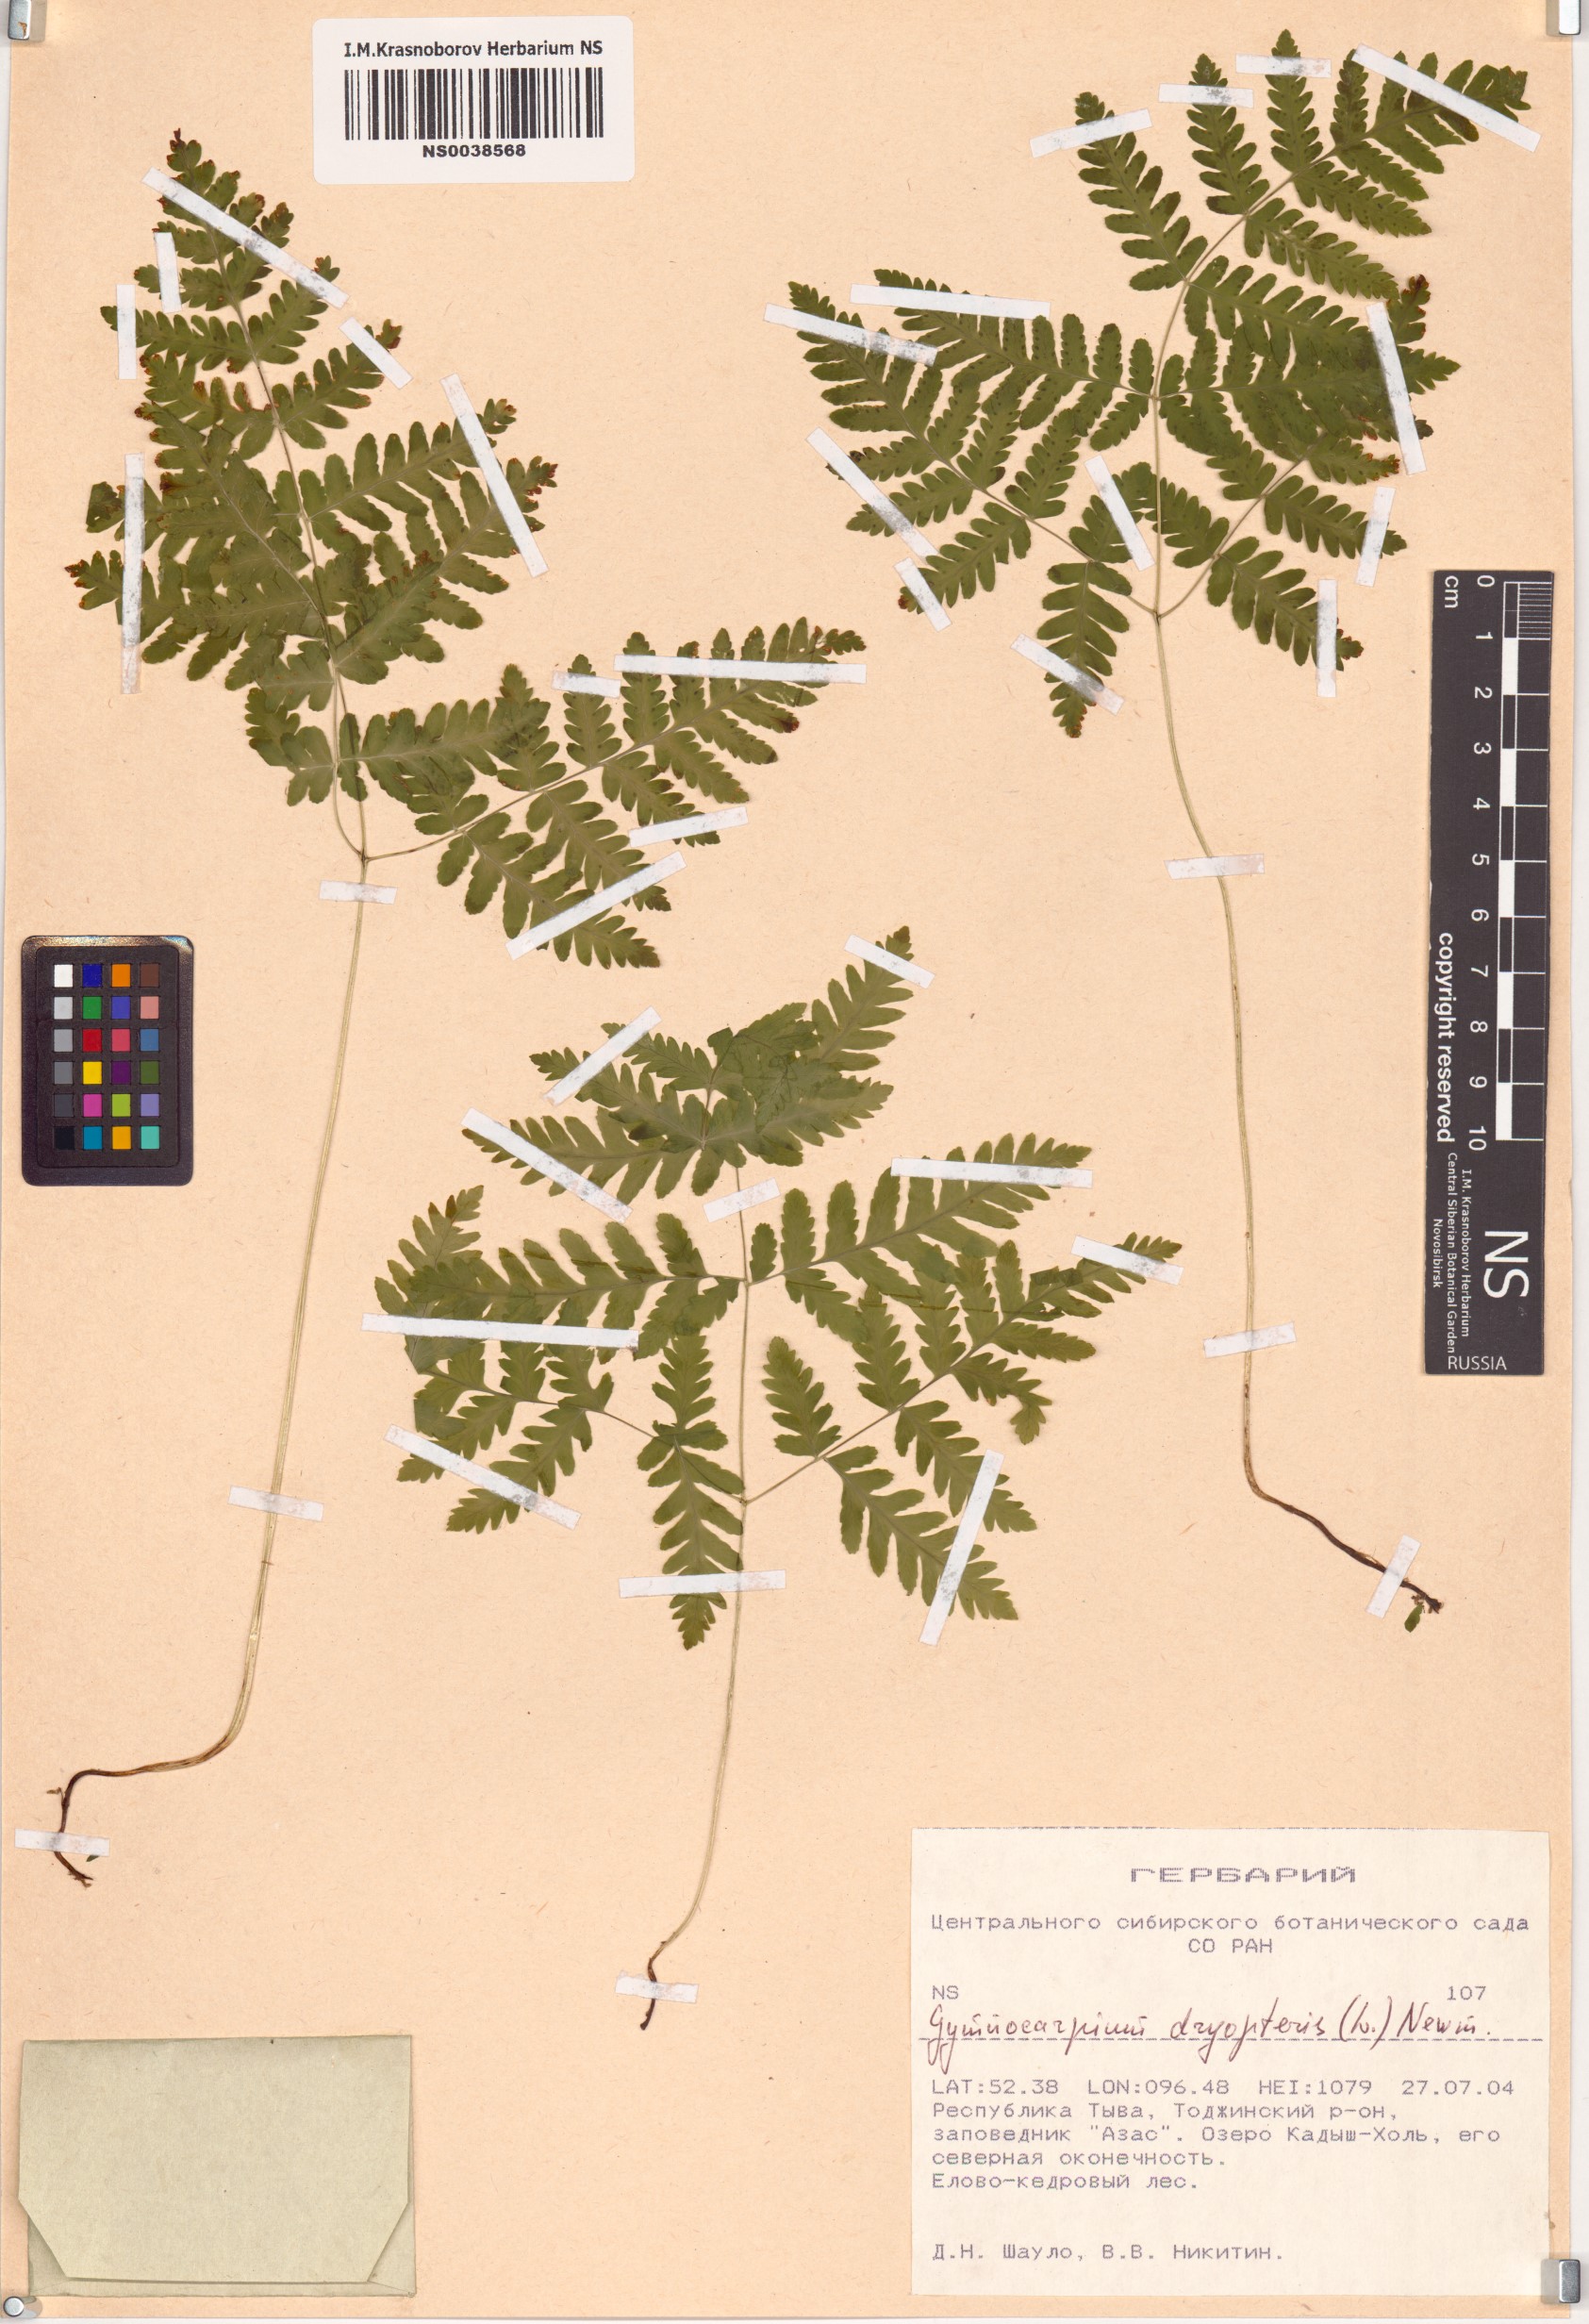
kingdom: Plantae
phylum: Tracheophyta
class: Polypodiopsida
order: Polypodiales
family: Cystopteridaceae
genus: Gymnocarpium
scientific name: Gymnocarpium dryopteris
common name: Oak fern
